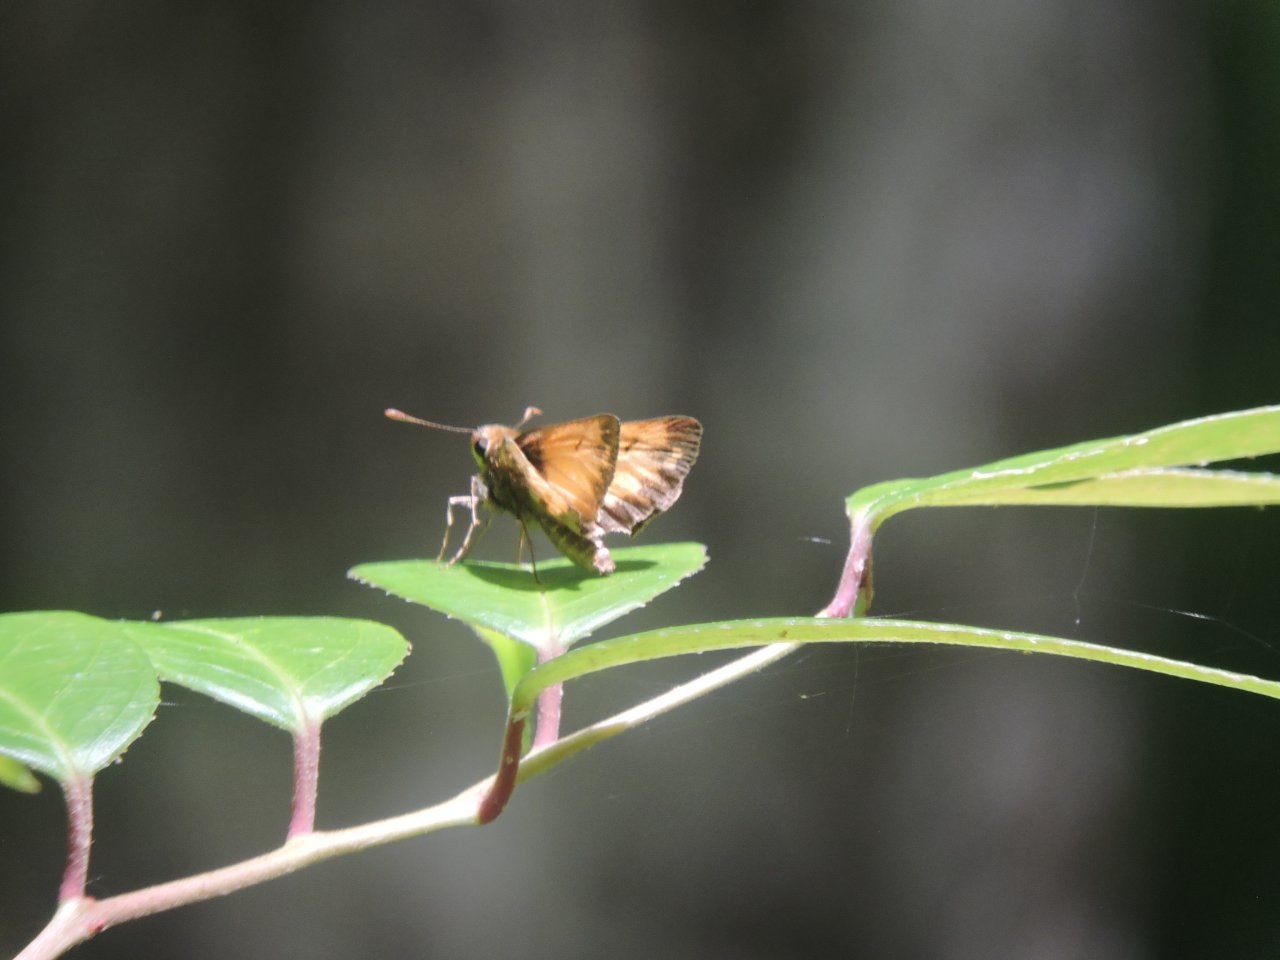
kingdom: Animalia
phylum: Arthropoda
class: Insecta
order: Lepidoptera
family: Hesperiidae
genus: Lon
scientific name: Lon zabulon
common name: Zabulon Skipper
